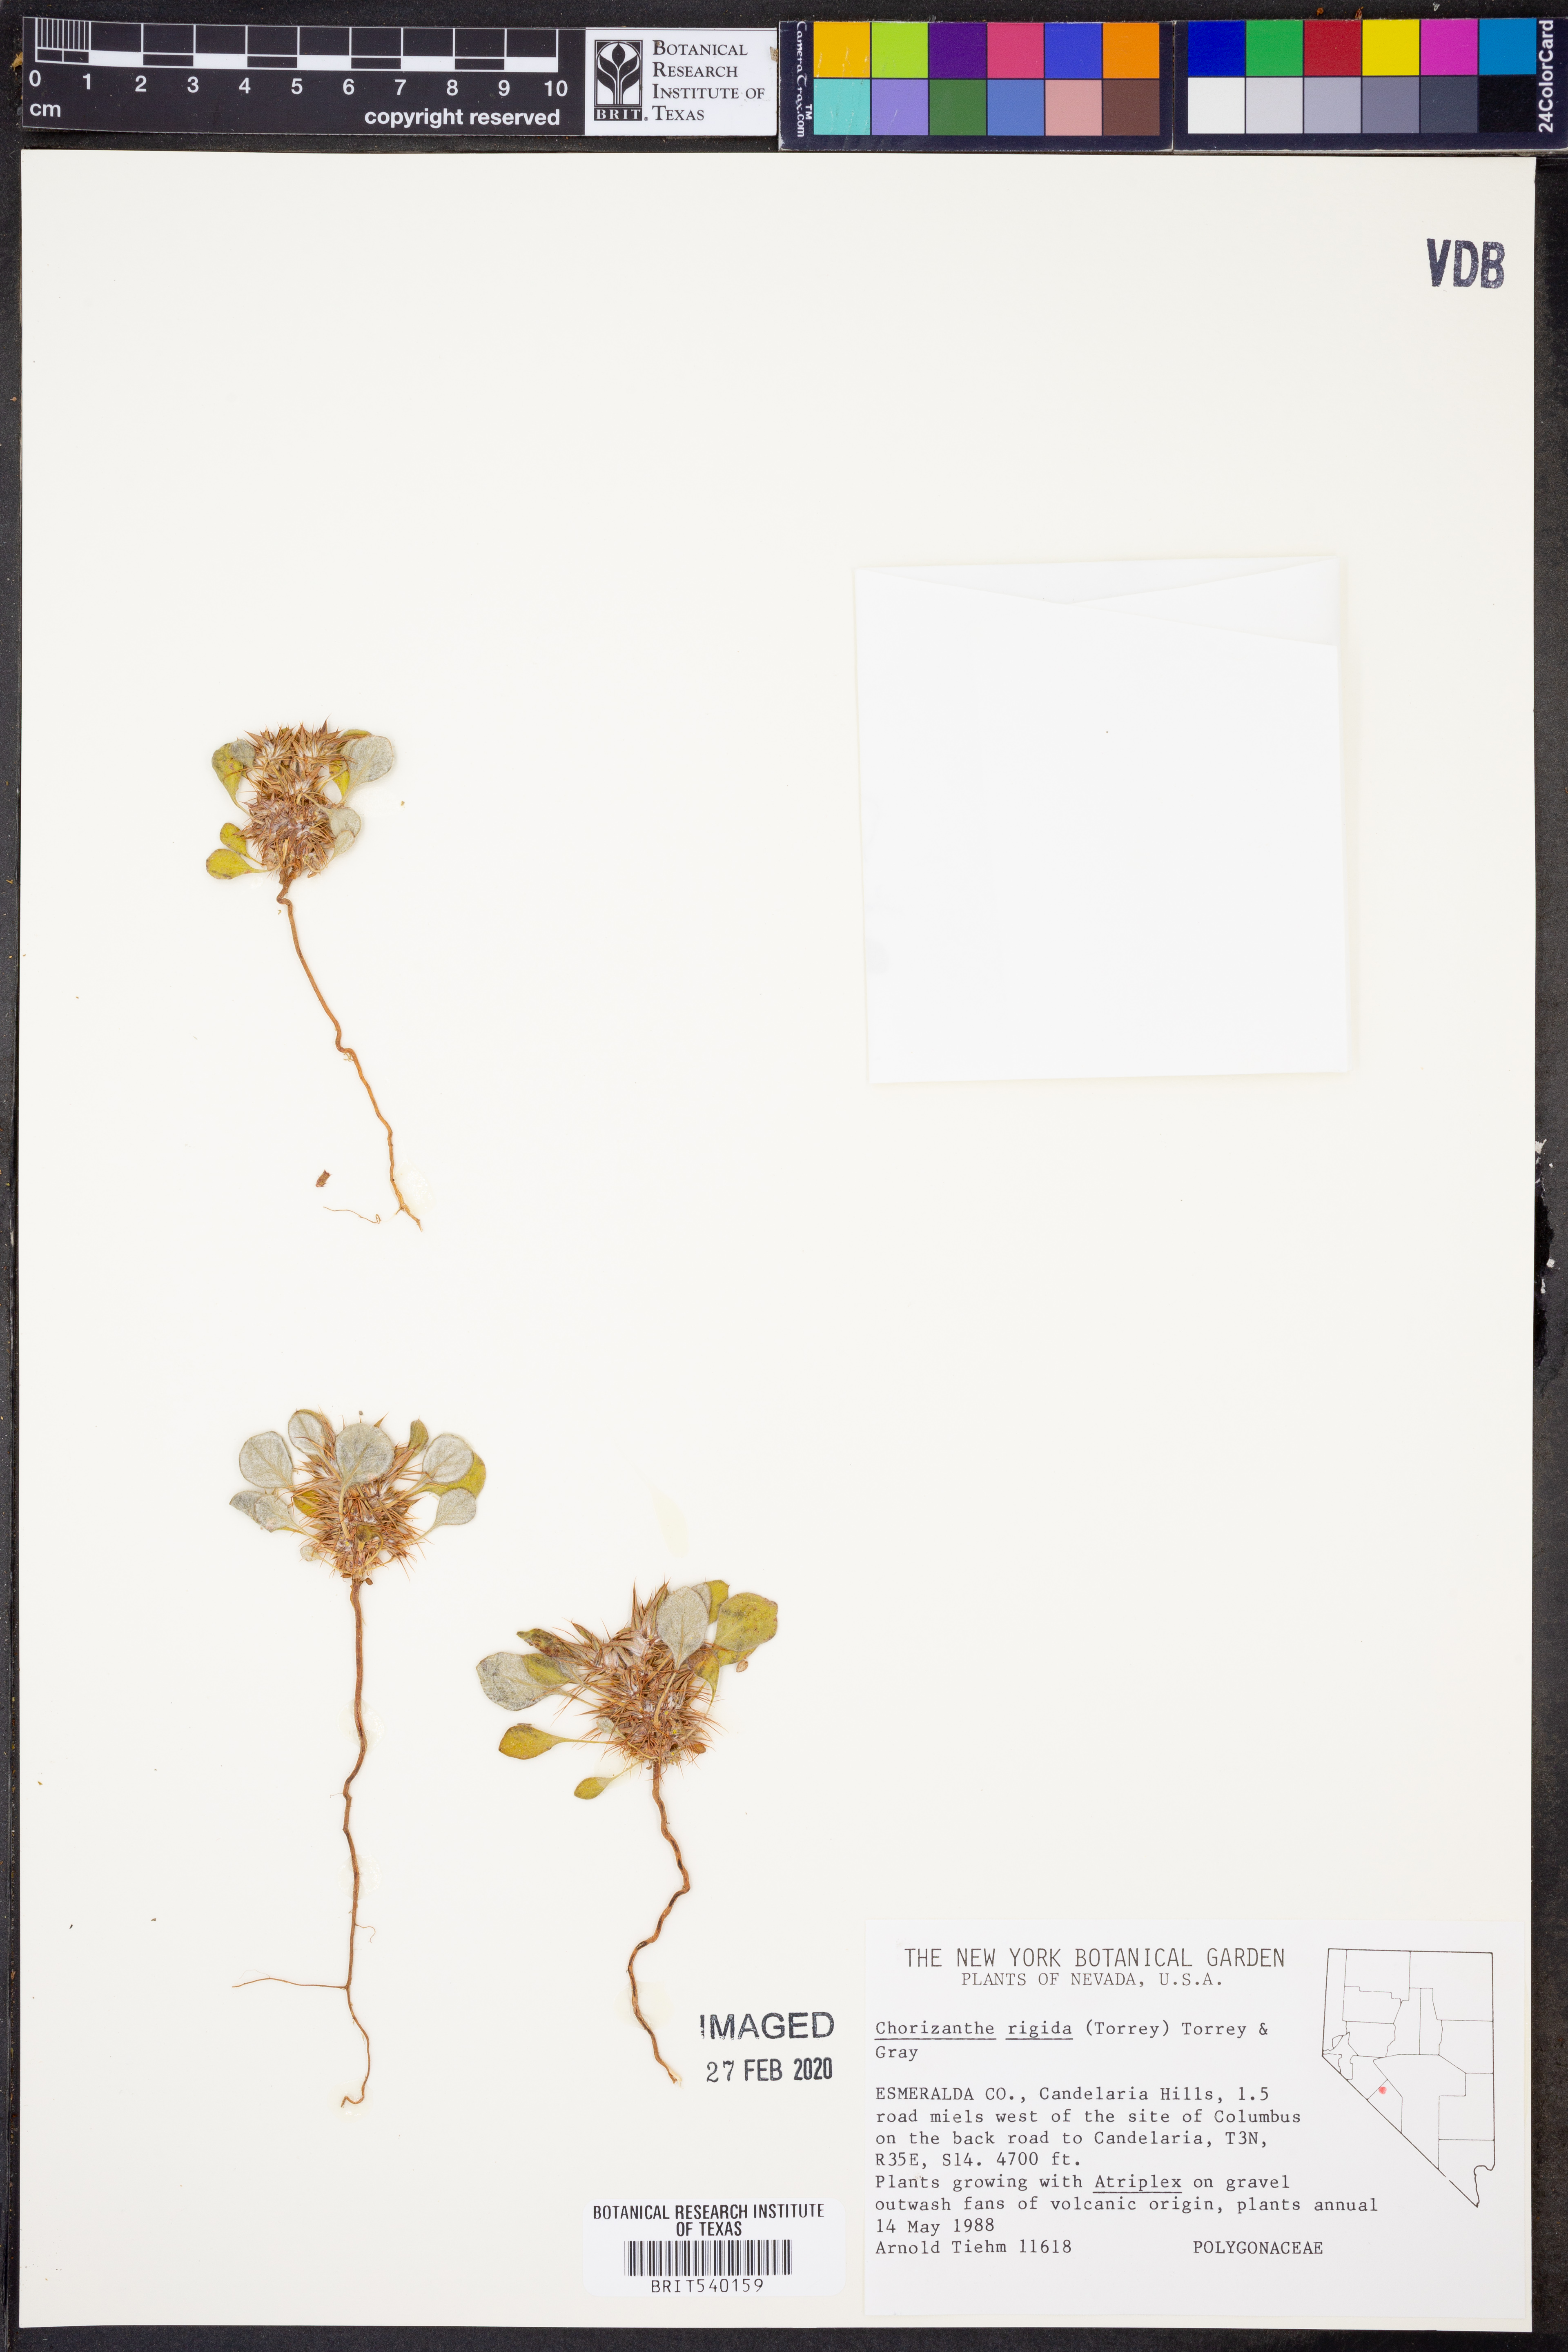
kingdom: Plantae
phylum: Tracheophyta
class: Magnoliopsida
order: Caryophyllales
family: Polygonaceae
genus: Chorizanthe
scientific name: Chorizanthe rigida
